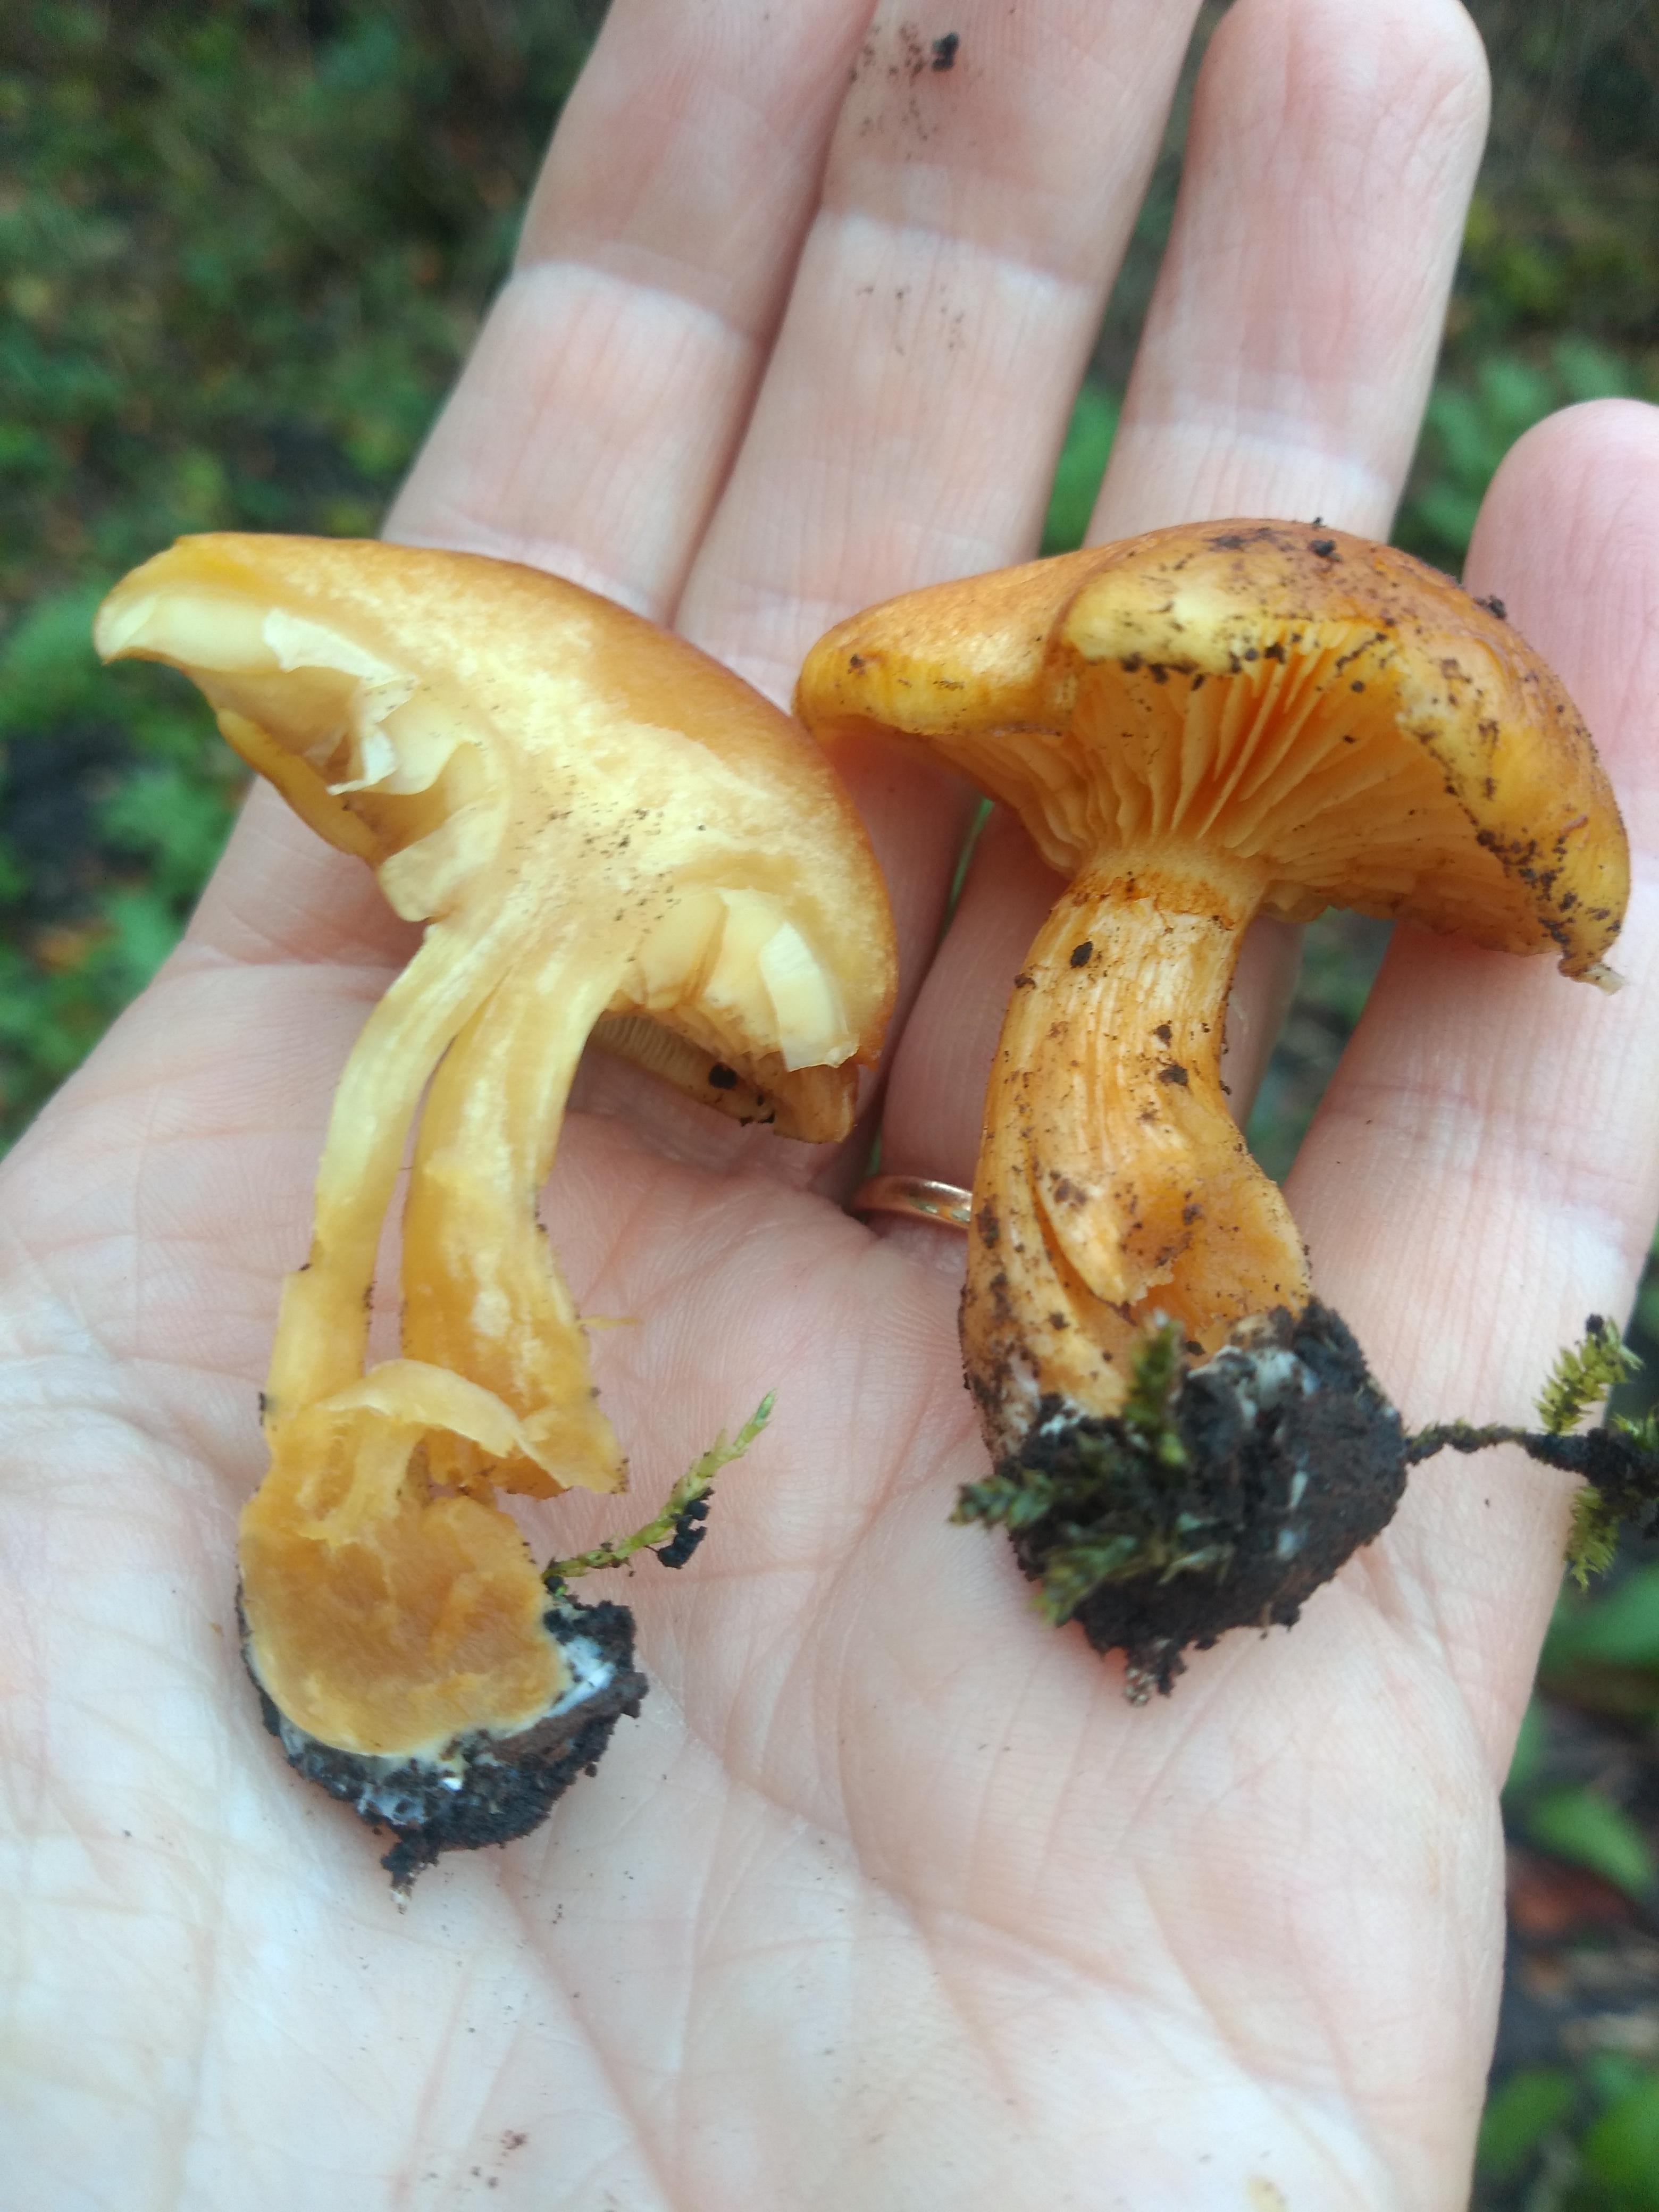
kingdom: Fungi
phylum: Basidiomycota
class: Agaricomycetes
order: Agaricales
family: Hymenogastraceae
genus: Gymnopilus
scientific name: Gymnopilus penetrans
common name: plettet flammehat
